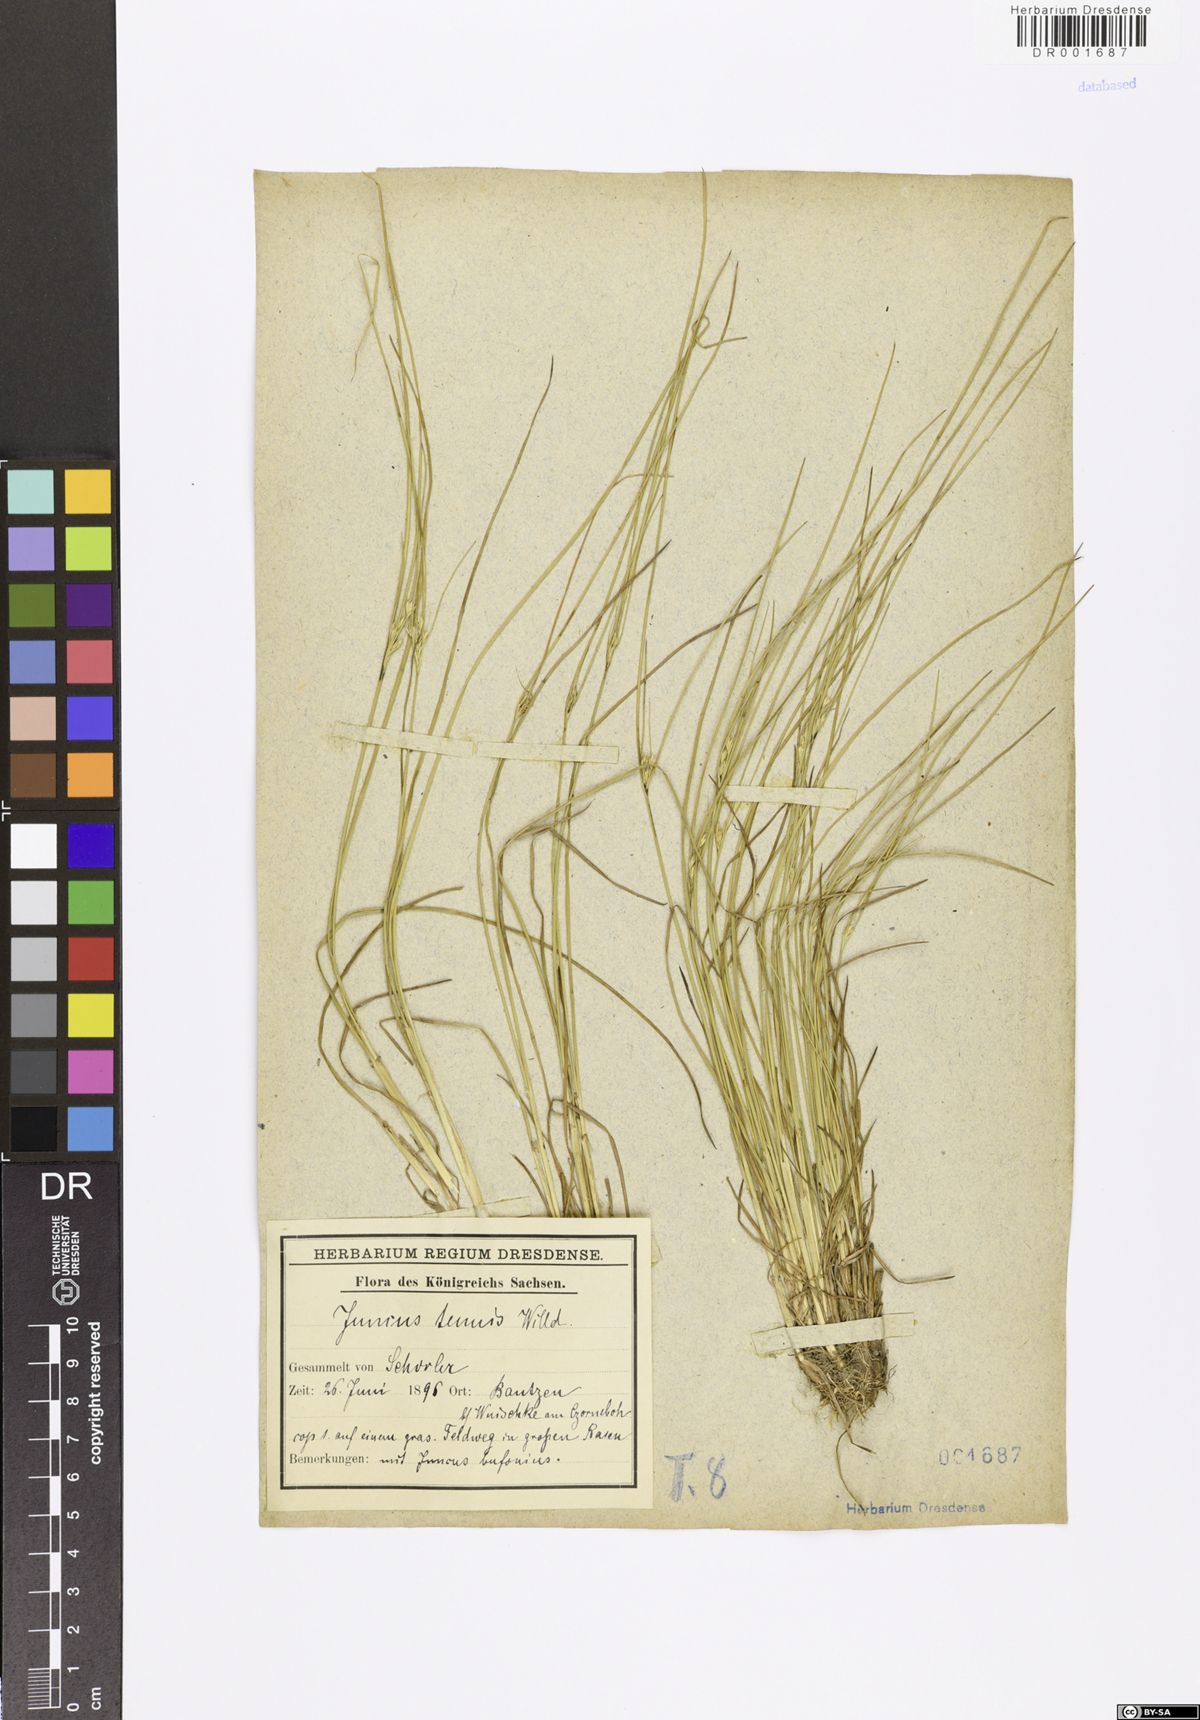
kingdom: Plantae
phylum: Tracheophyta
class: Liliopsida
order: Poales
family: Juncaceae
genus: Juncus
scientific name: Juncus tenuis
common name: Slender rush
